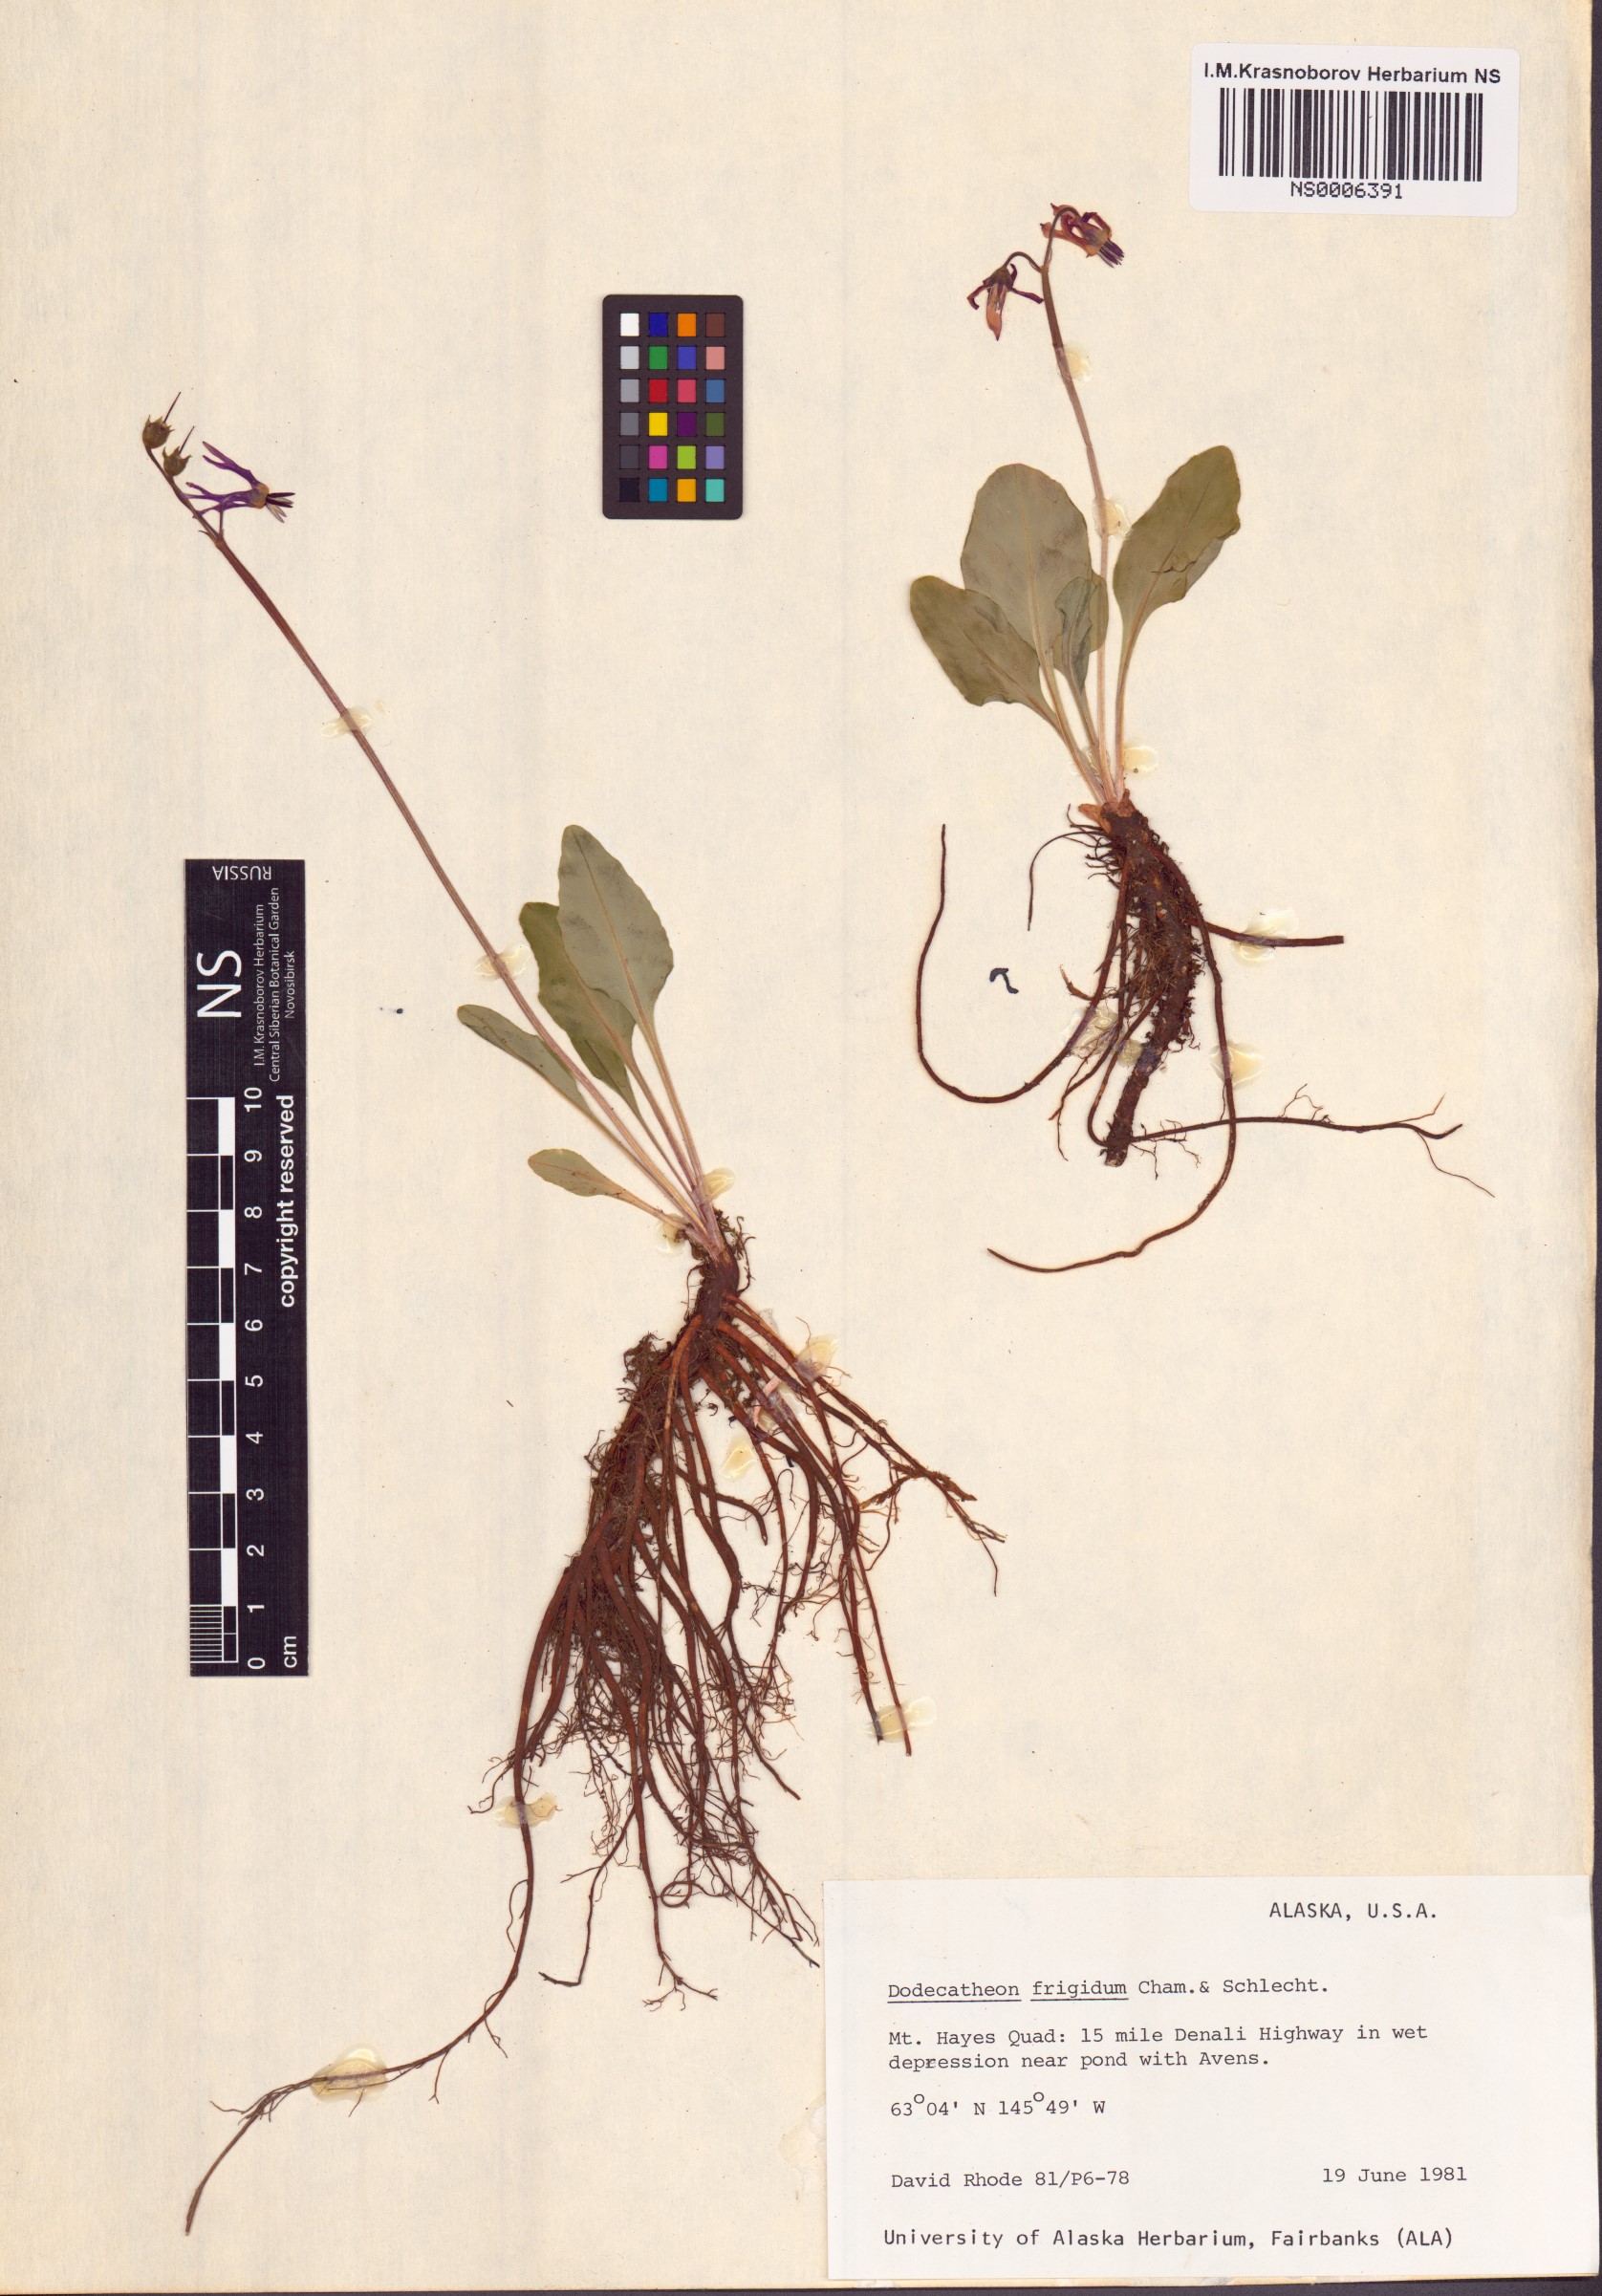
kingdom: Plantae
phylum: Tracheophyta
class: Magnoliopsida
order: Ericales
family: Primulaceae
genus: Dodecatheon
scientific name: Dodecatheon frigidum
